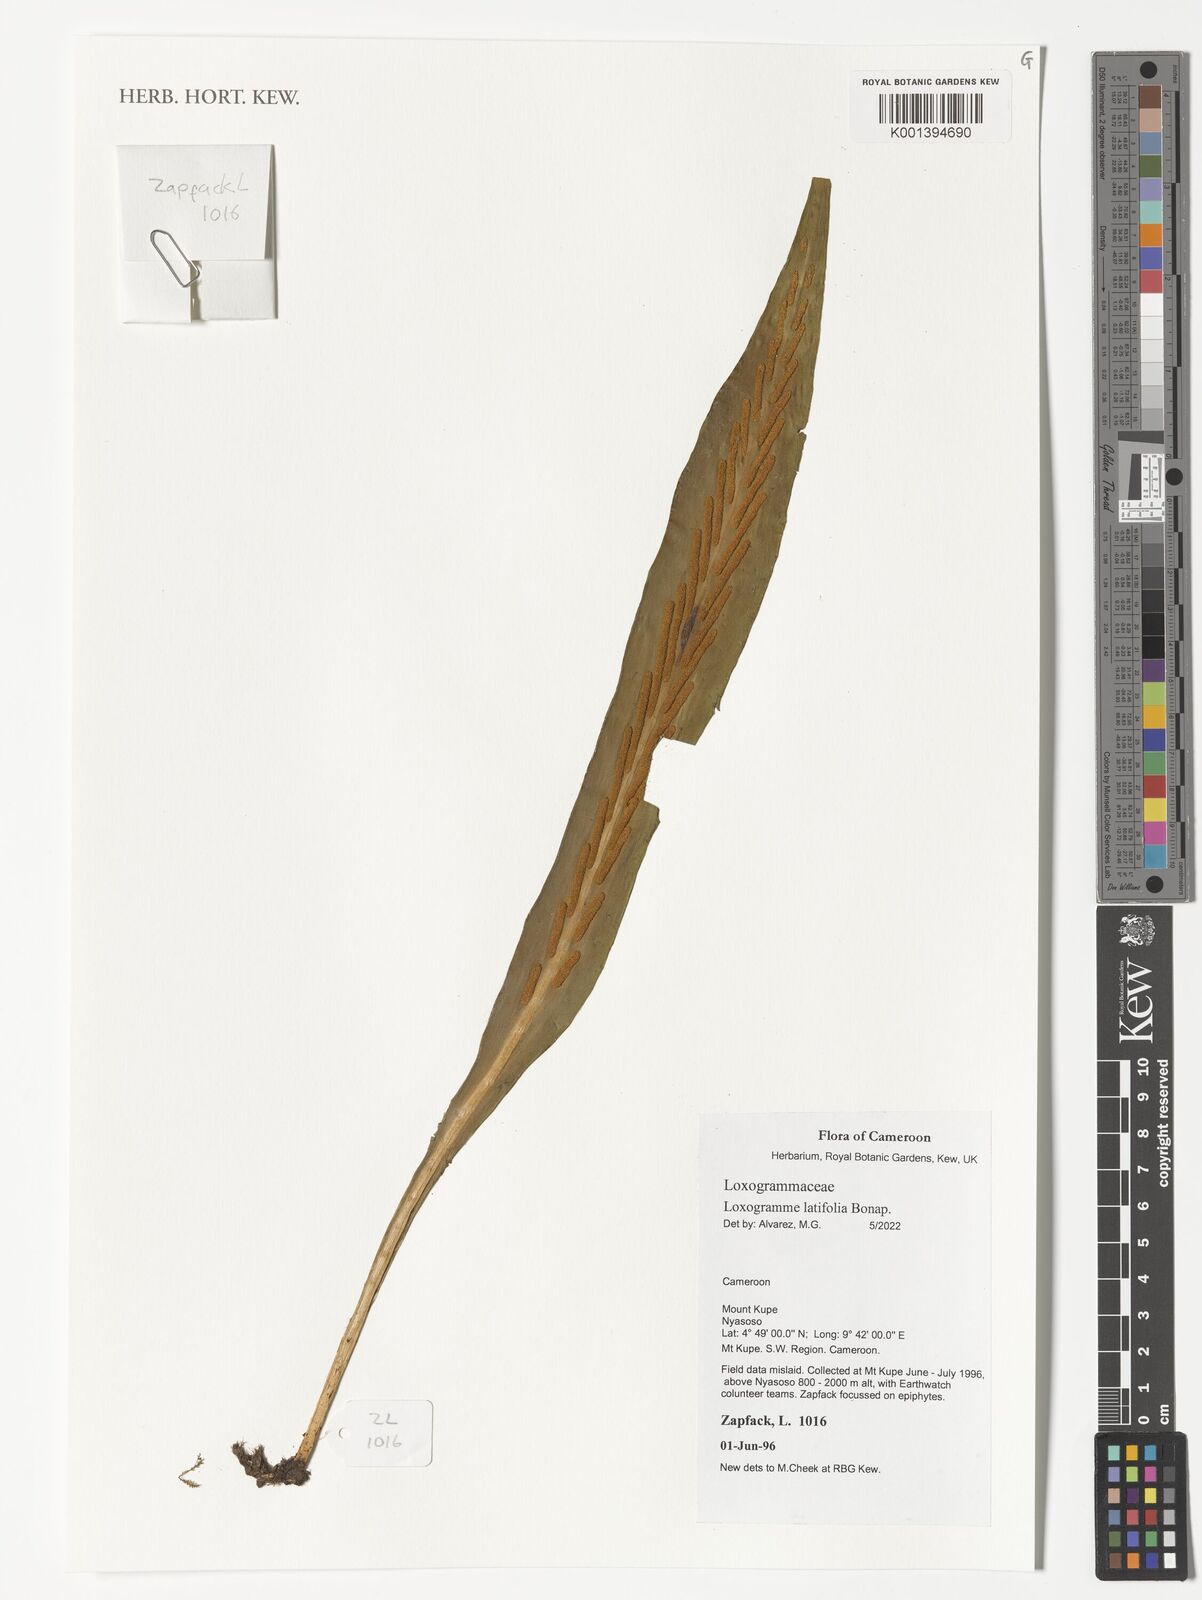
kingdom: Plantae
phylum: Tracheophyta
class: Polypodiopsida
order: Polypodiales
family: Polypodiaceae
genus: Loxogramme
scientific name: Loxogramme latifolia
